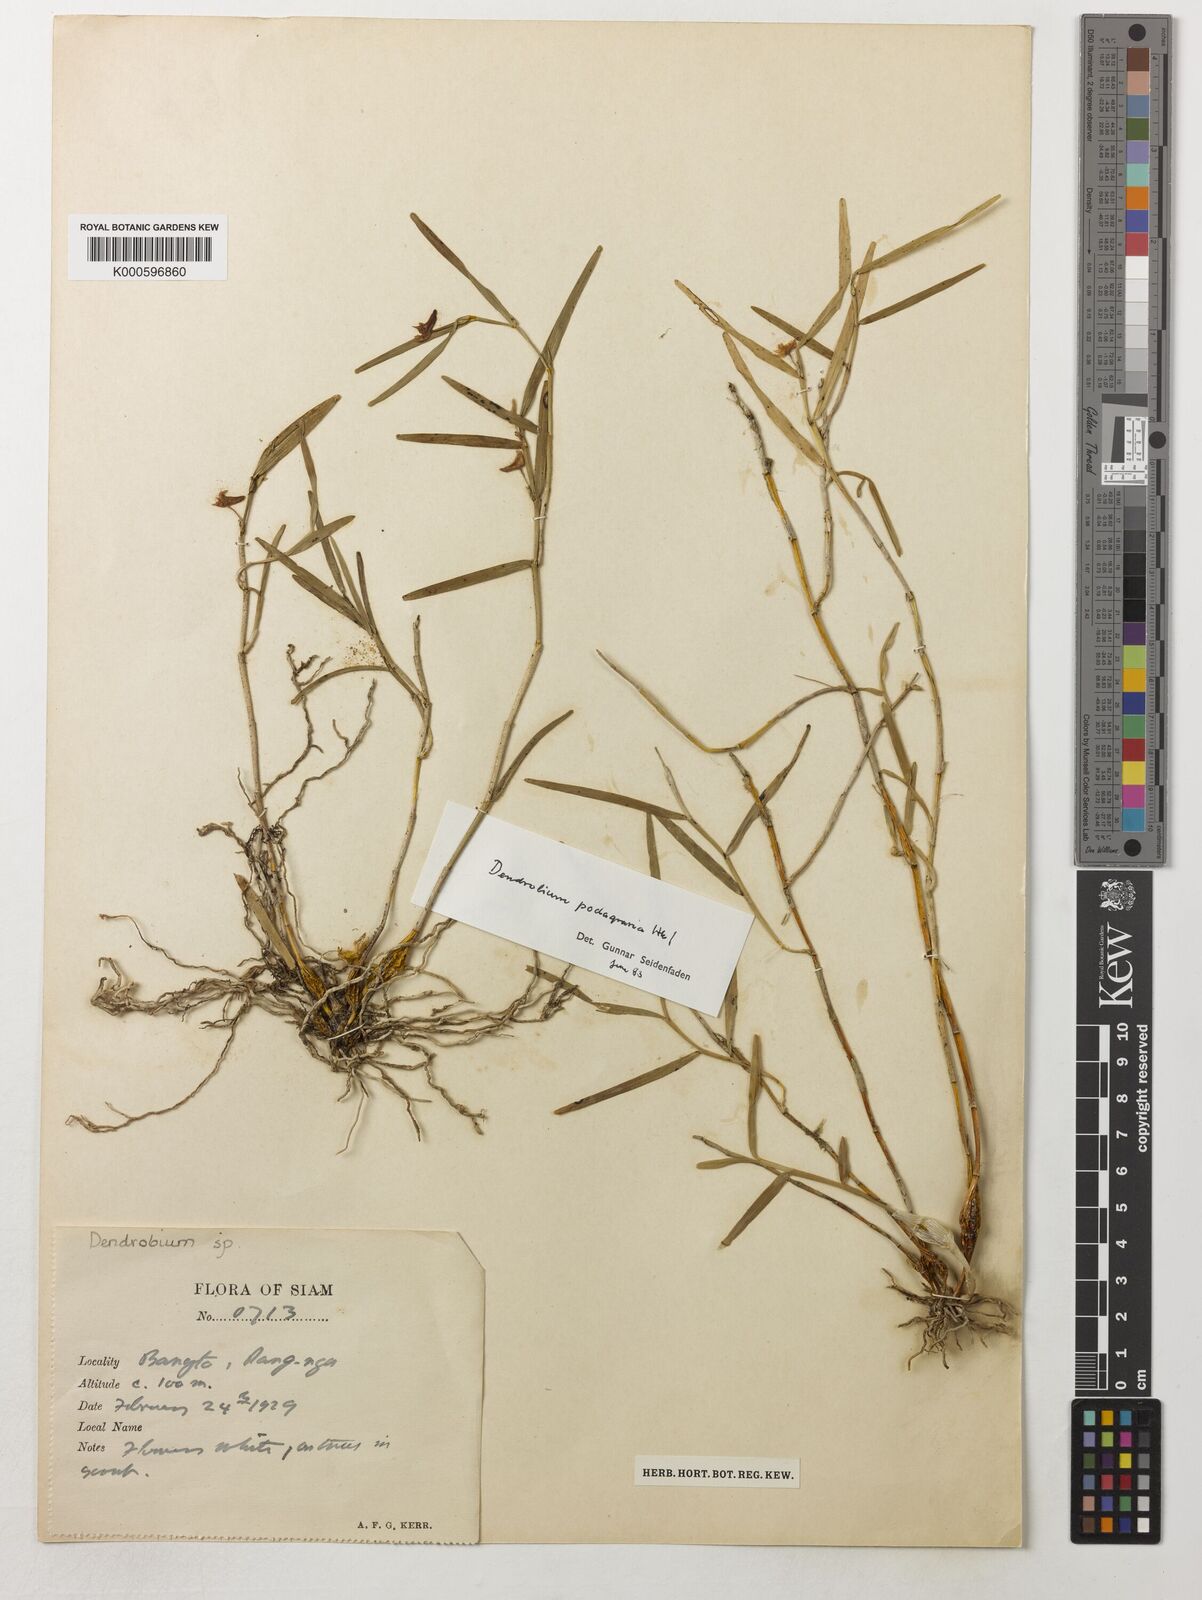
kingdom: Plantae
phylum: Tracheophyta
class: Liliopsida
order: Asparagales
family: Orchidaceae
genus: Dendrobium
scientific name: Dendrobium
